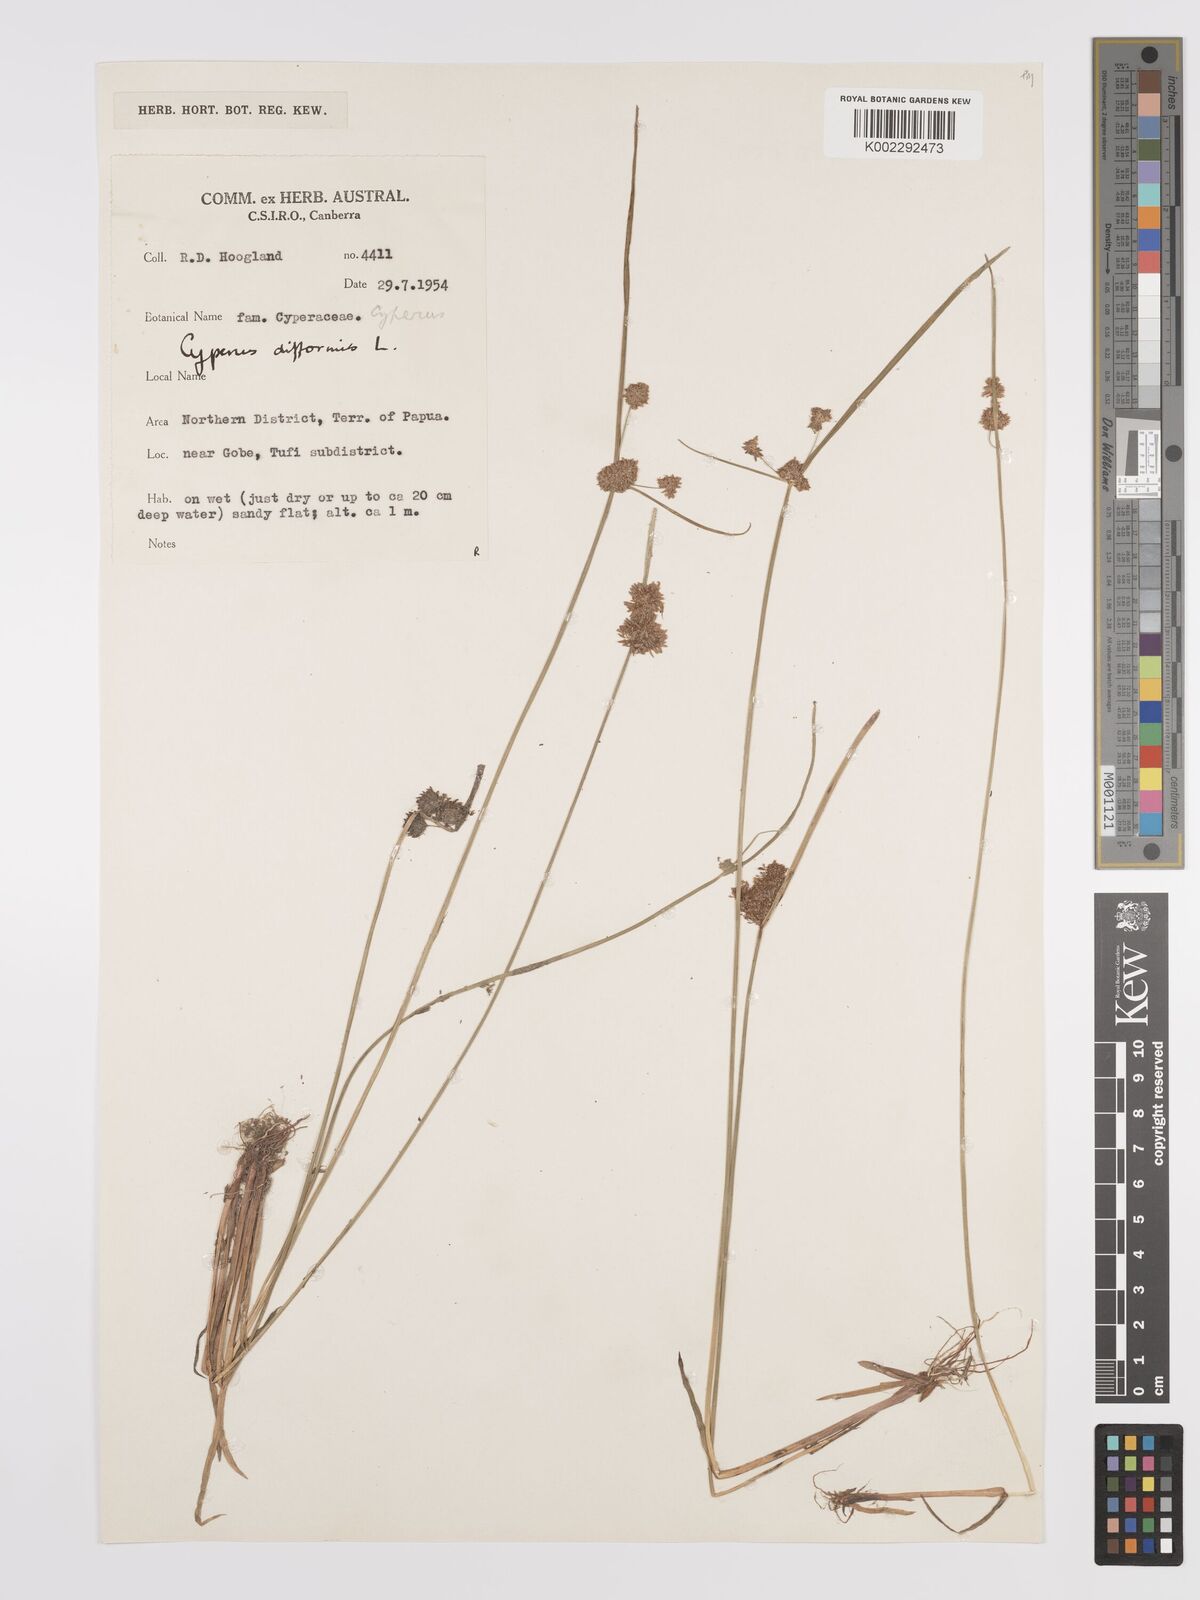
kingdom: Plantae
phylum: Tracheophyta
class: Liliopsida
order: Poales
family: Cyperaceae
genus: Cyperus
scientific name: Cyperus difformis
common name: Variable flatsedge
